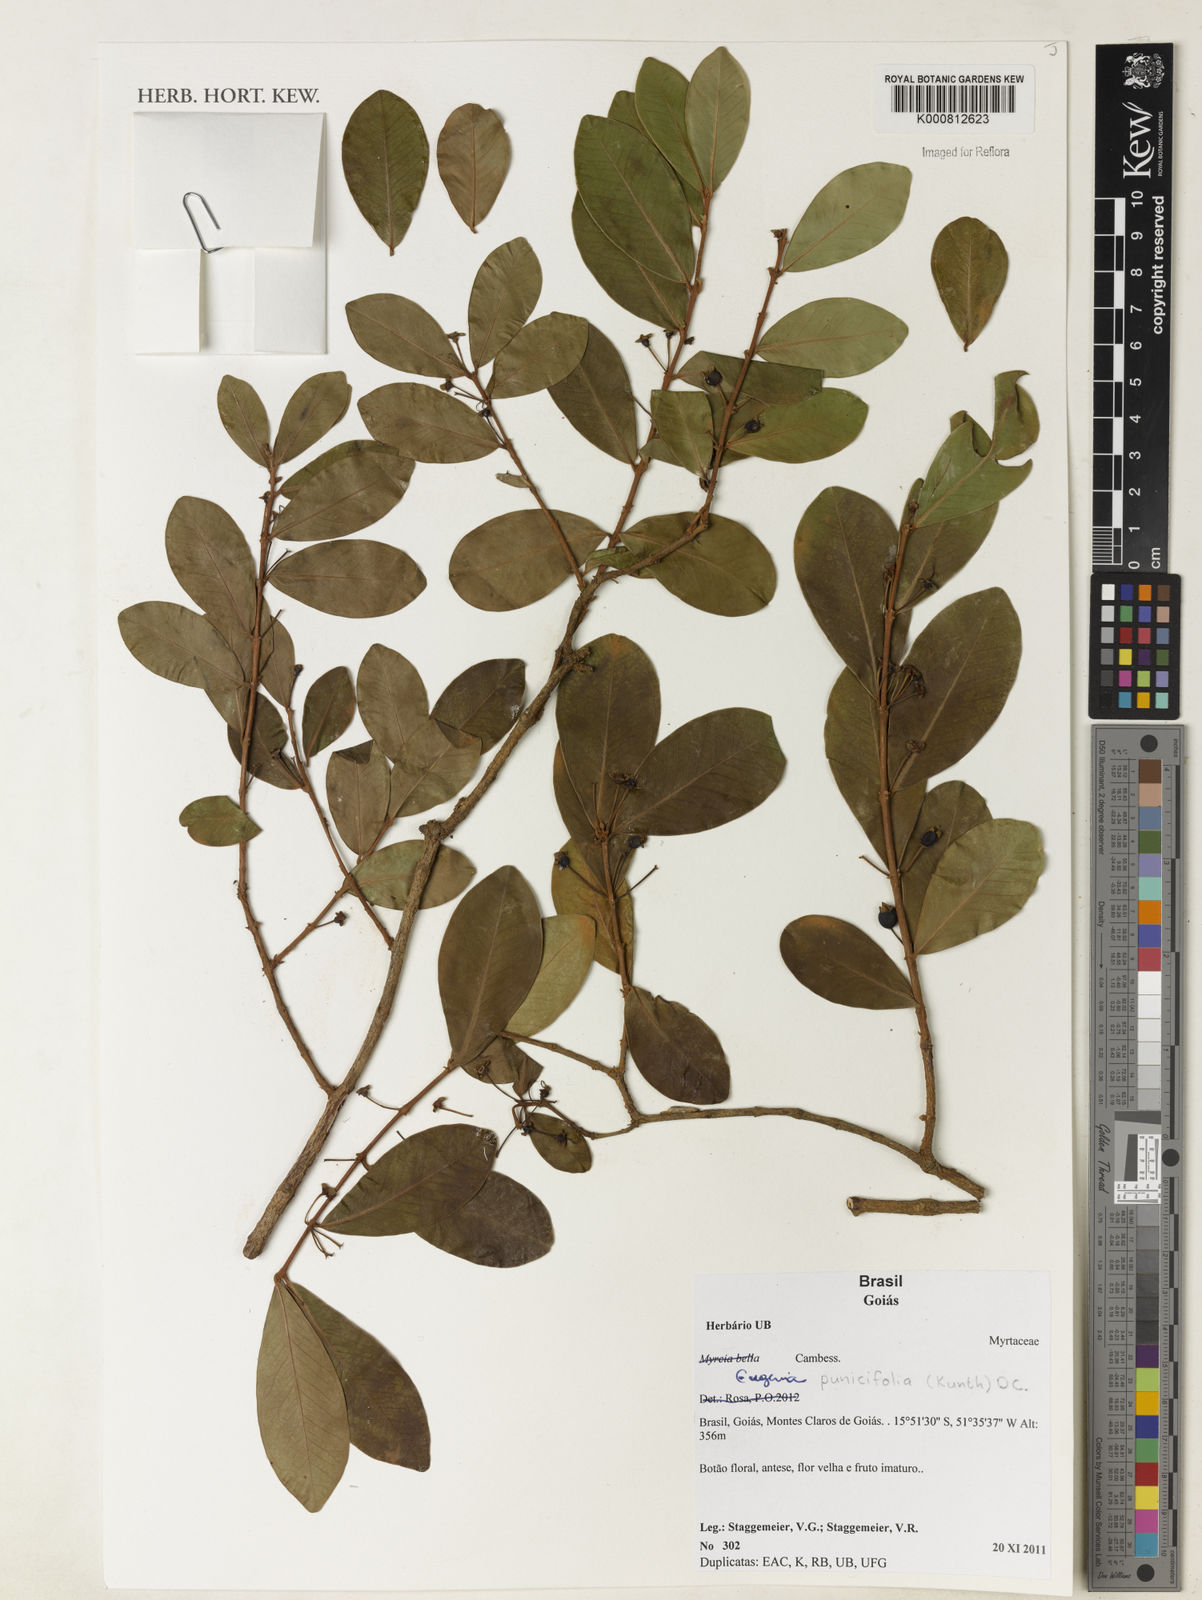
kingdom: Plantae
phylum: Tracheophyta
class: Magnoliopsida
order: Myrtales
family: Myrtaceae
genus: Eugenia
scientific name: Eugenia punicifolia
